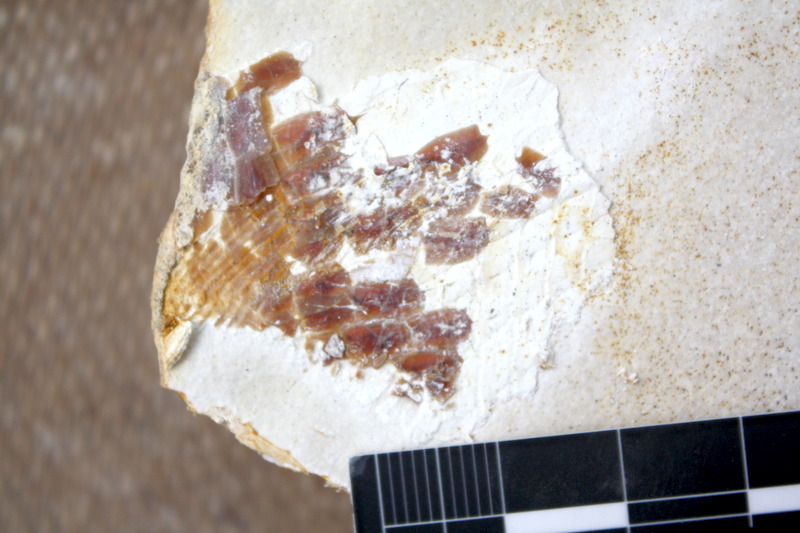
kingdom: Animalia
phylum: Chordata
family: Aspidorhynchidae
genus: Aspidorhynchus
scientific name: Aspidorhynchus sanzenbacheri
